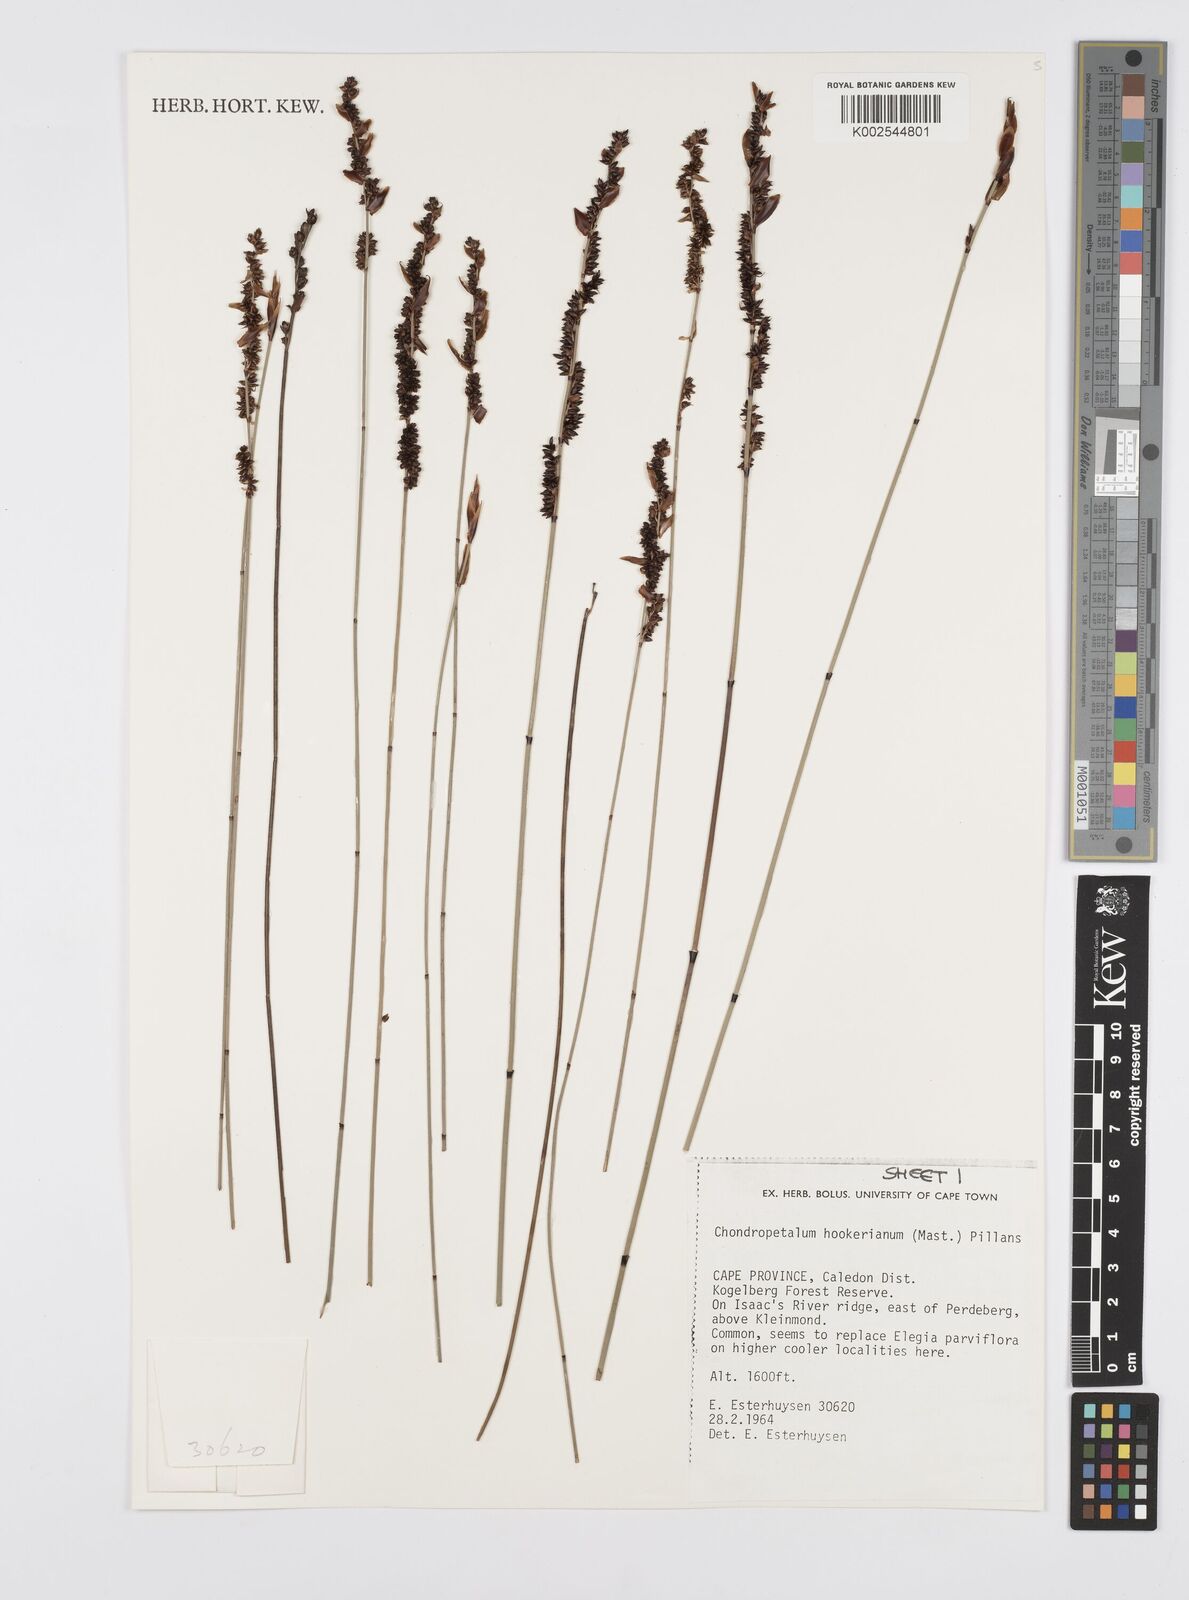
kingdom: Plantae
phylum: Tracheophyta
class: Liliopsida
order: Poales
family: Restionaceae
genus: Elegia
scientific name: Elegia hookeriana
